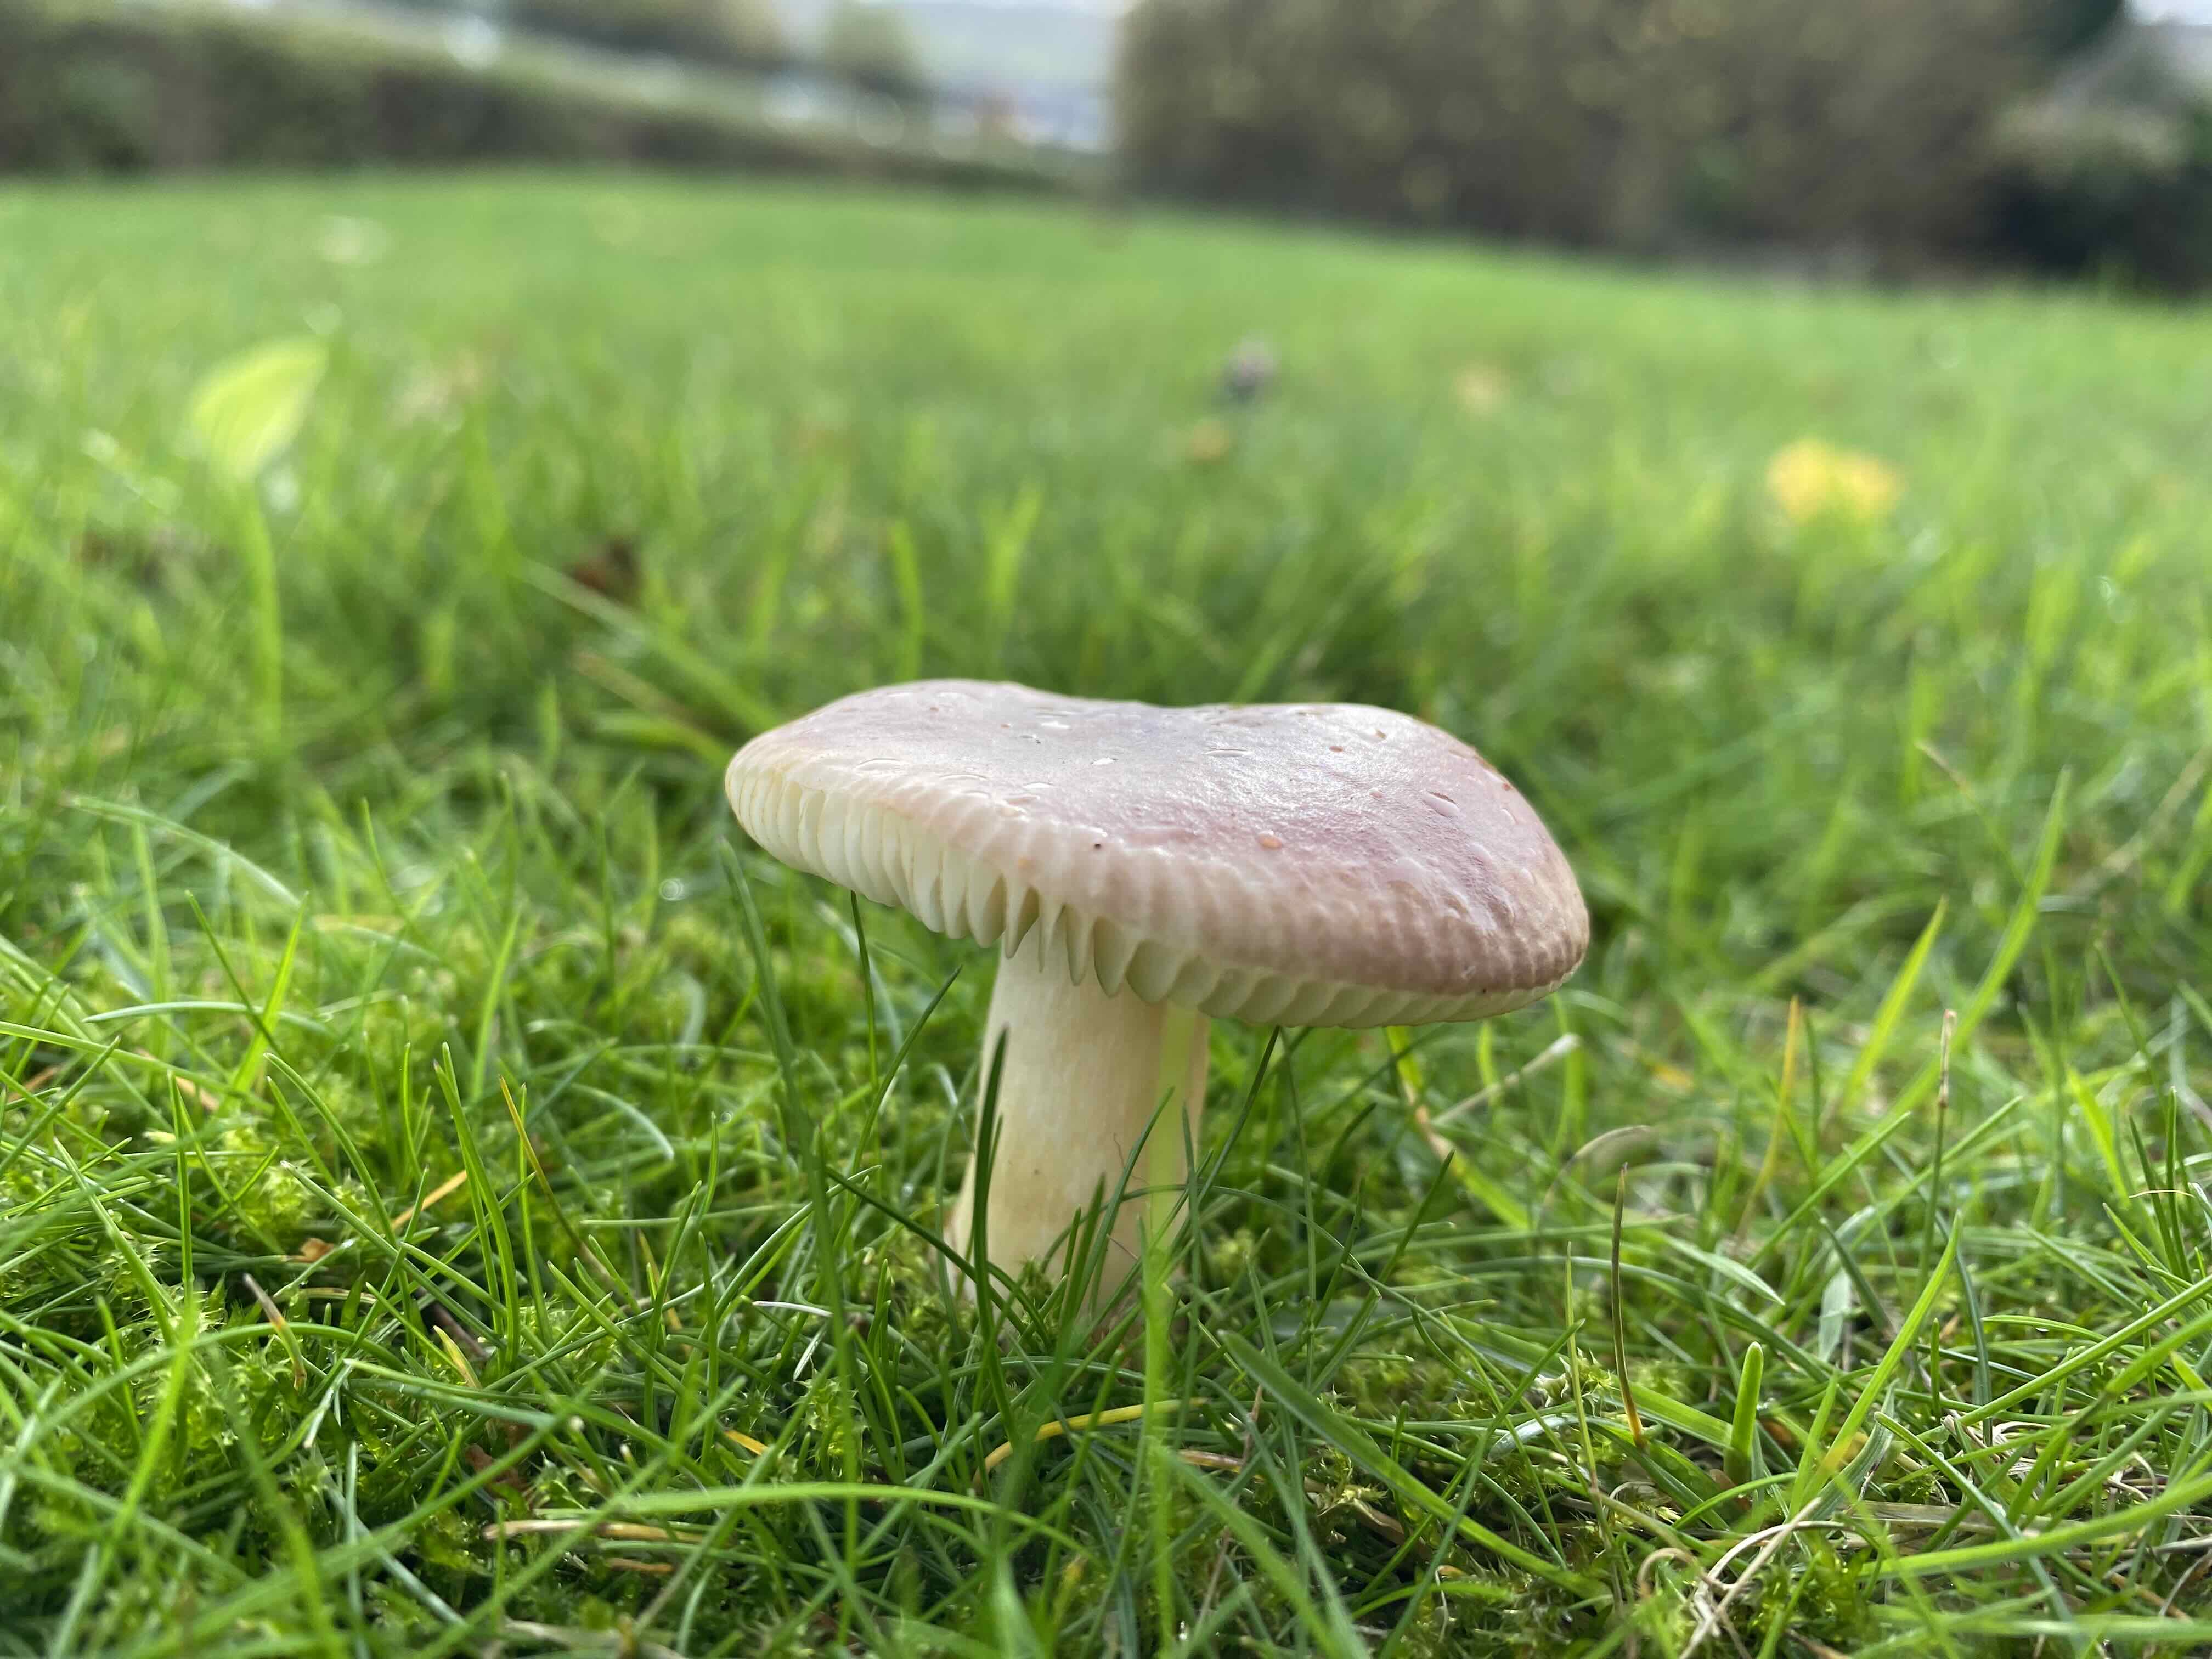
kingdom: Fungi
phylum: Basidiomycota
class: Agaricomycetes
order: Russulales
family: Russulaceae
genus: Russula
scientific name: Russula
